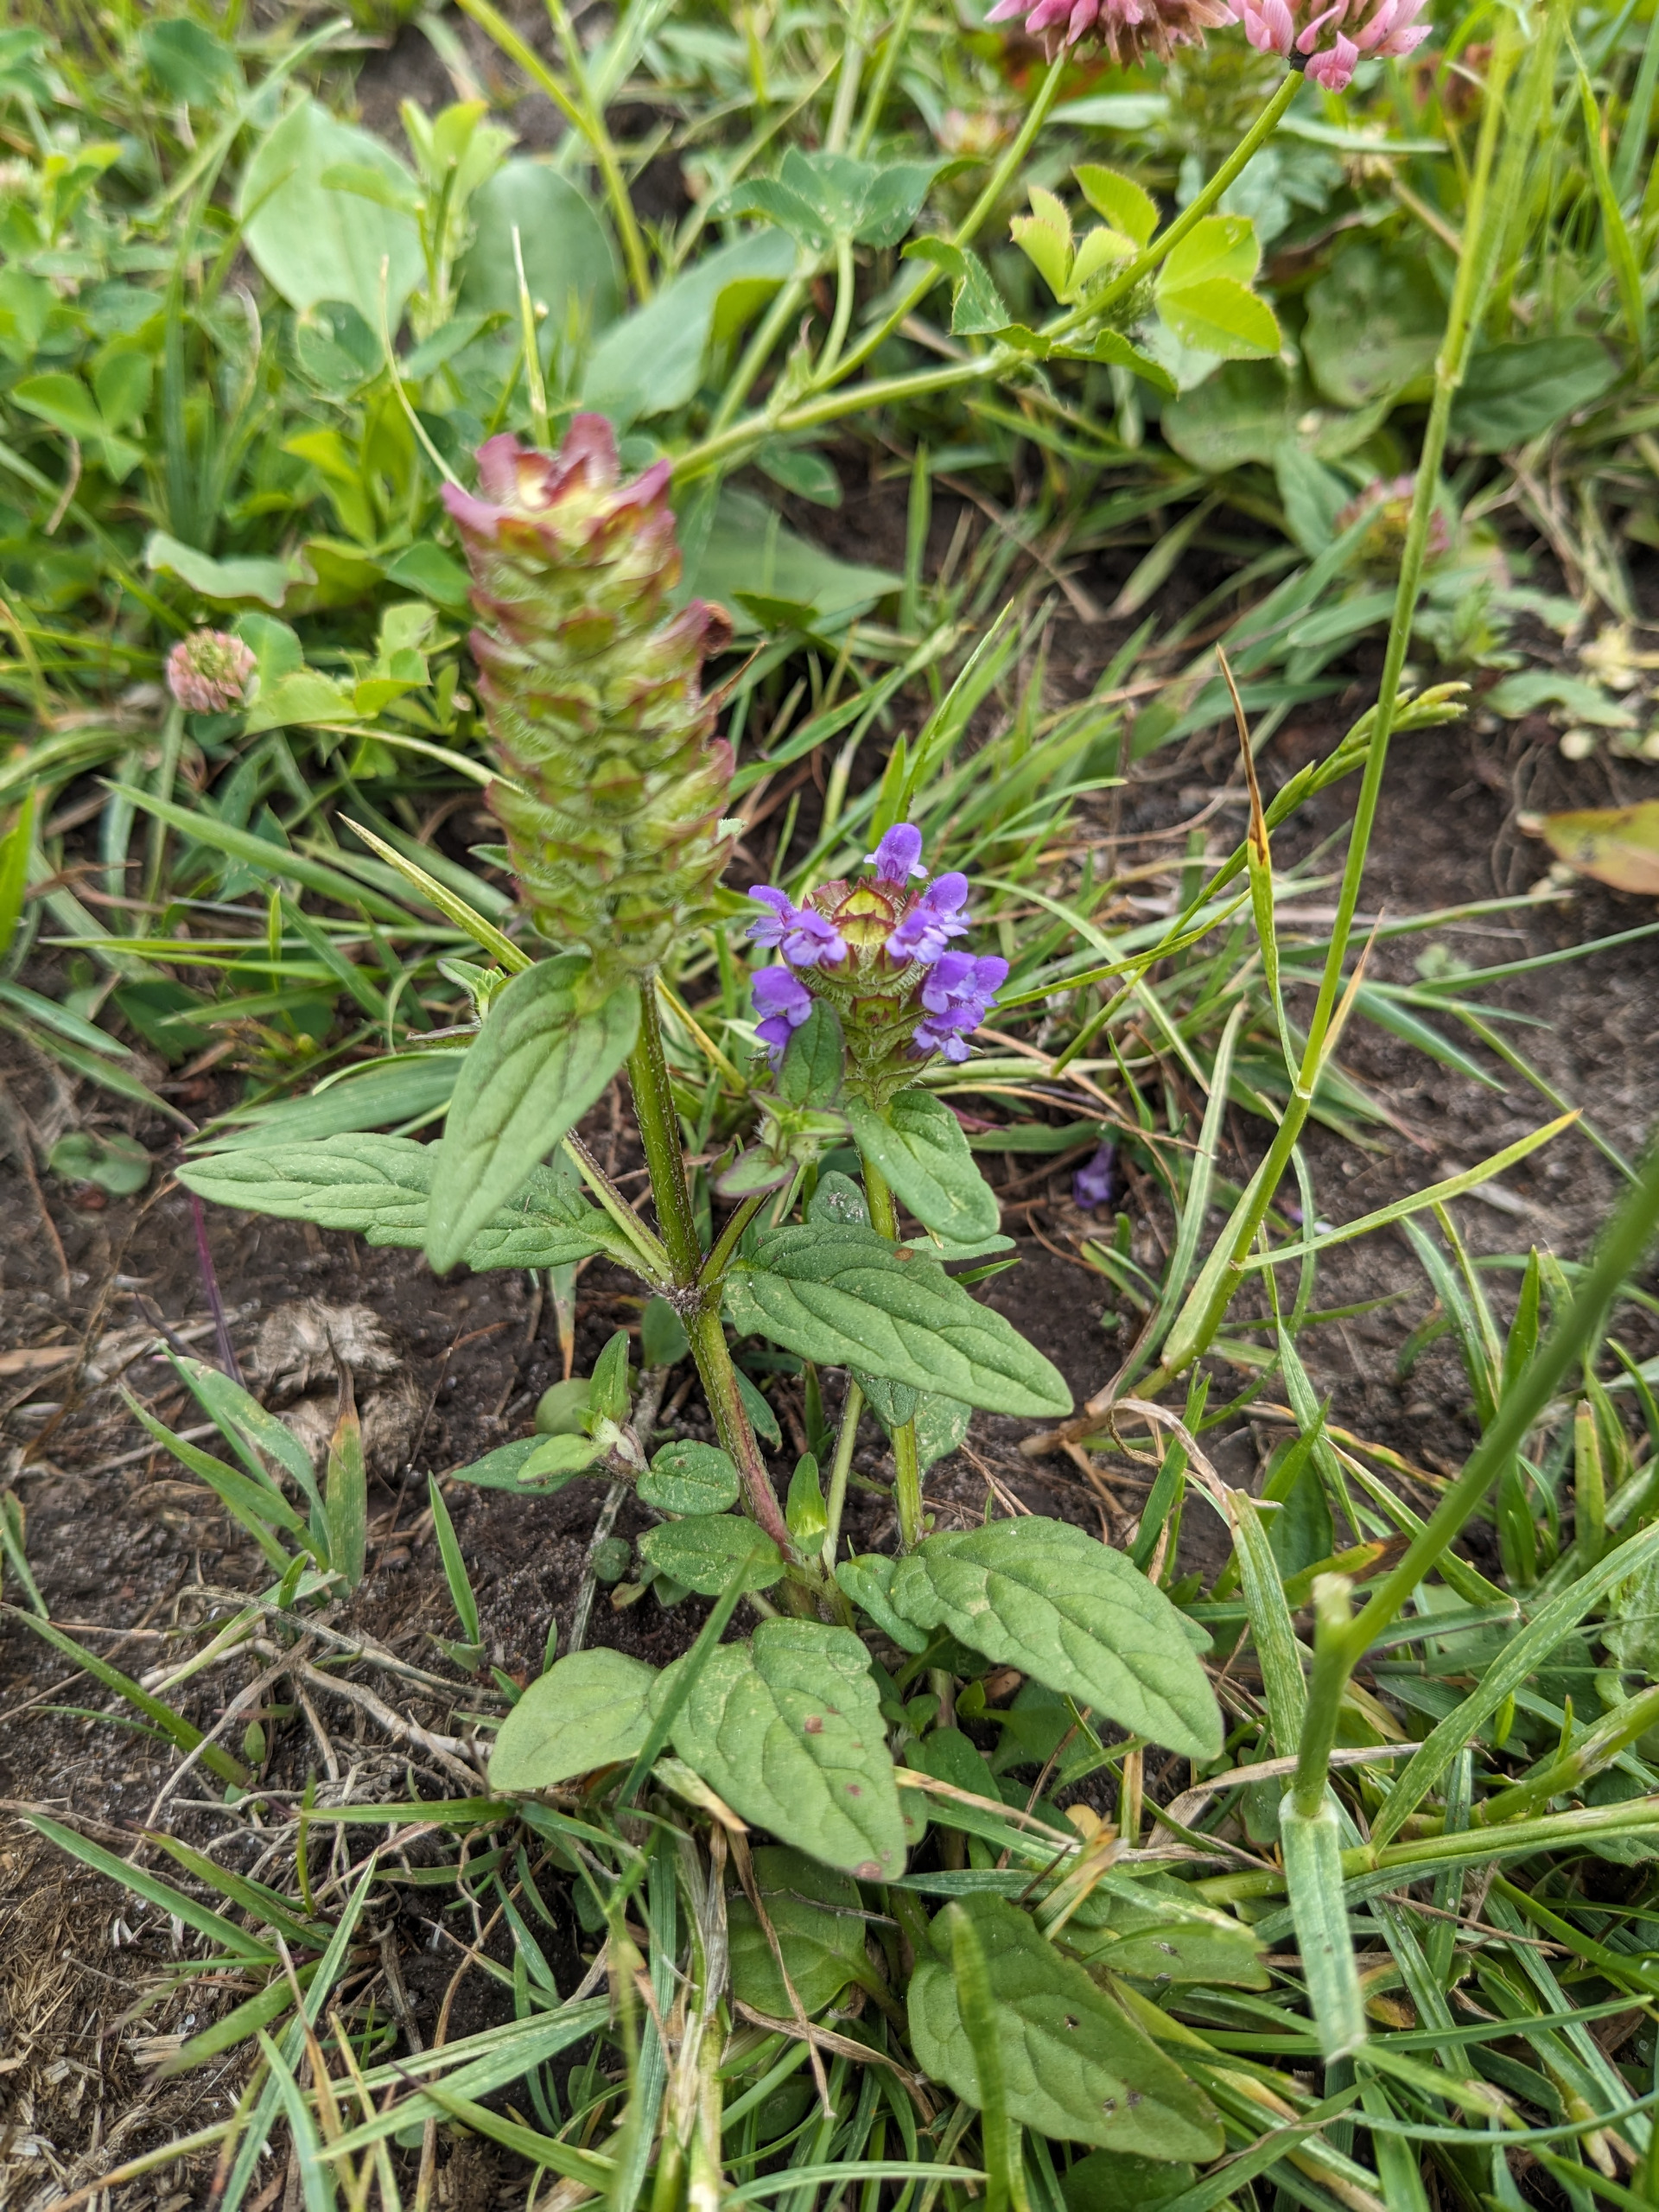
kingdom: Plantae
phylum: Tracheophyta
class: Magnoliopsida
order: Lamiales
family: Lamiaceae
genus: Prunella
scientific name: Prunella vulgaris
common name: Almindelig brunelle
